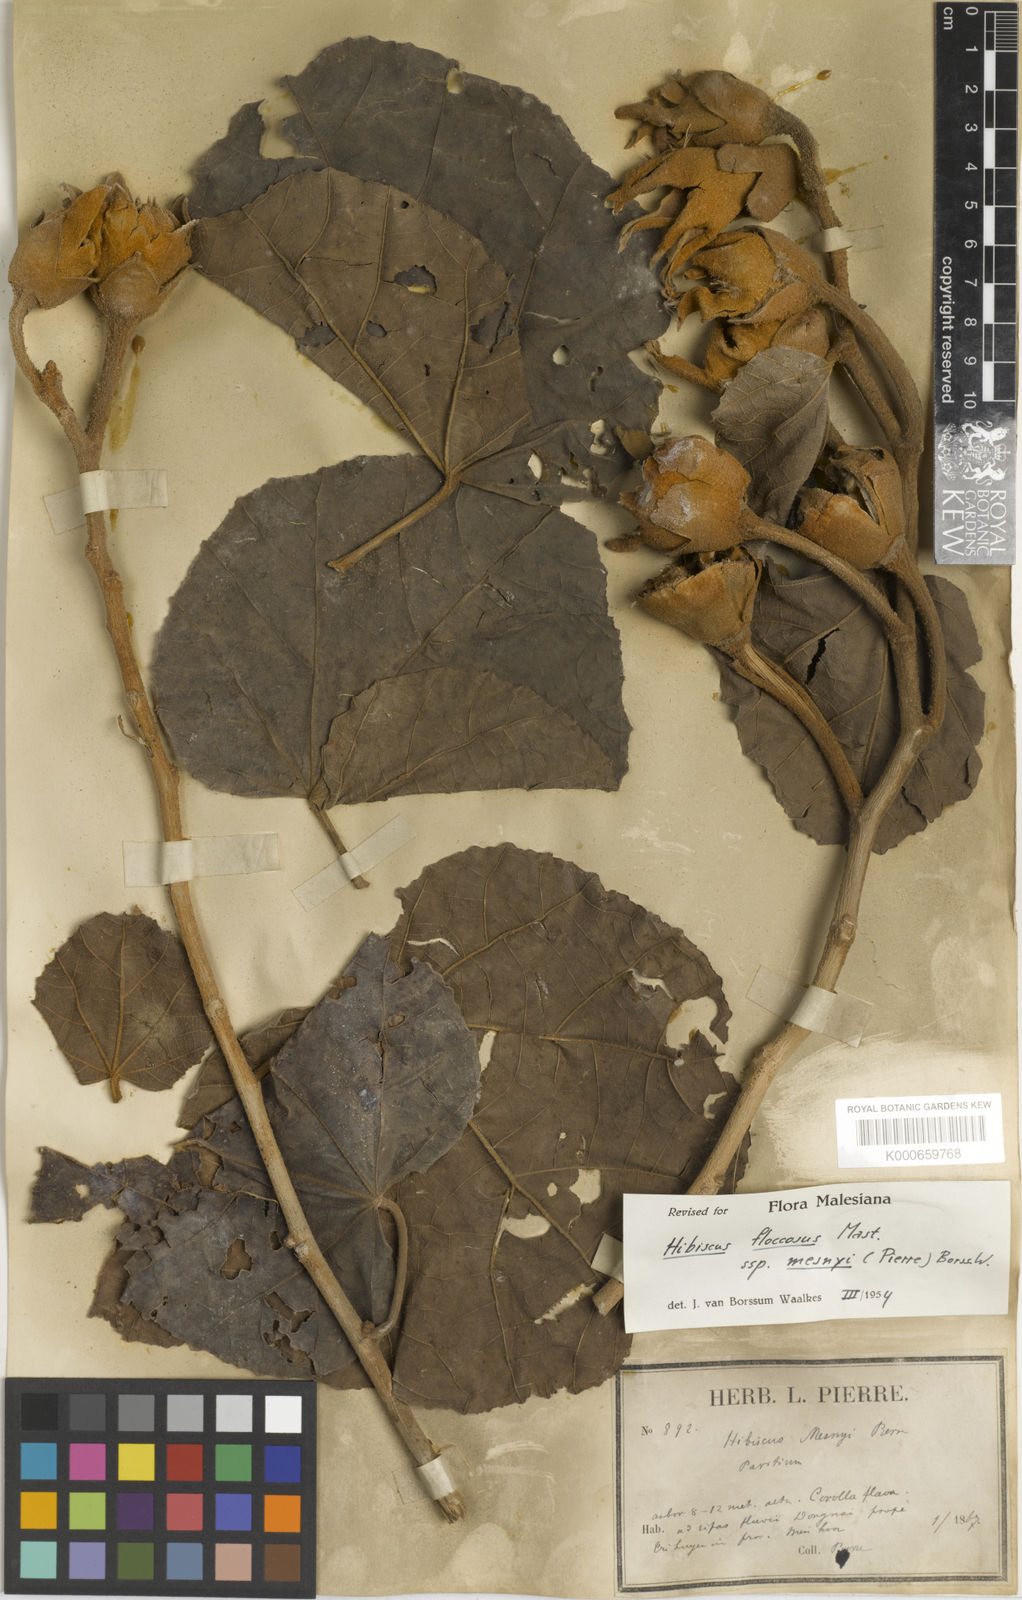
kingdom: Plantae
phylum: Tracheophyta
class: Magnoliopsida
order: Malvales
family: Malvaceae
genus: Hibiscus
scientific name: Hibiscus mesnyi
